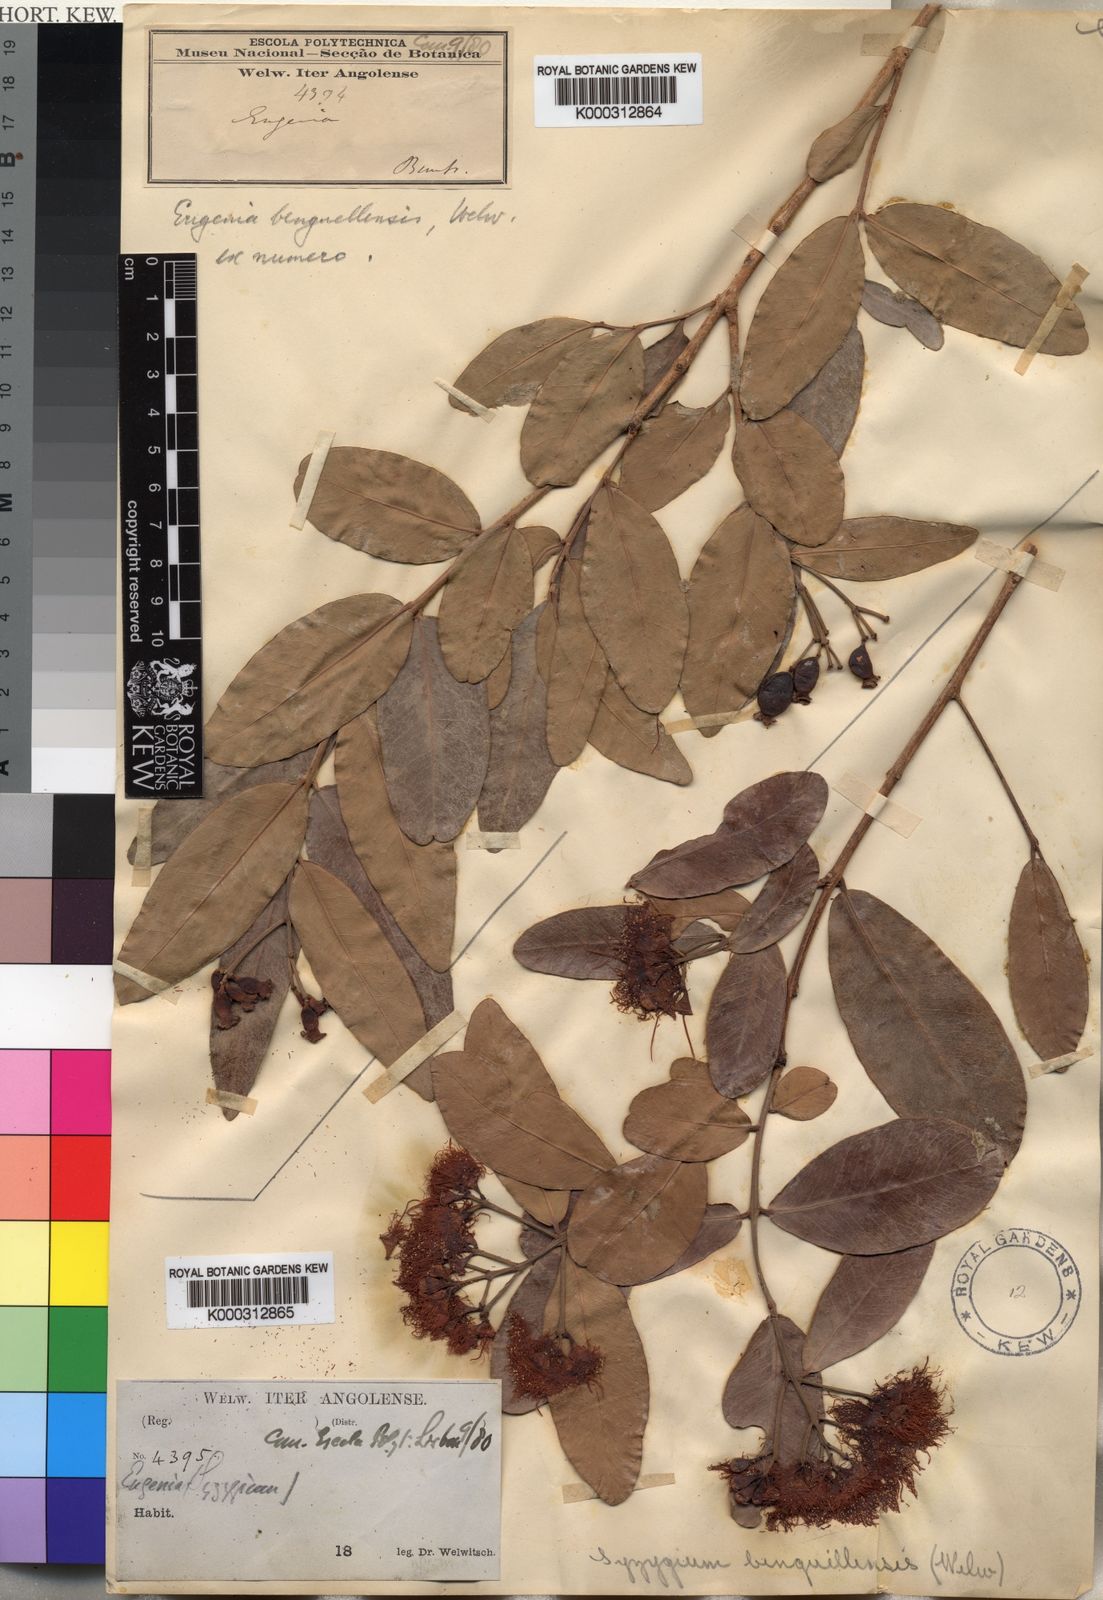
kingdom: Plantae
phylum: Tracheophyta
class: Magnoliopsida
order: Myrtales
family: Myrtaceae
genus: Syzygium
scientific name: Syzygium
